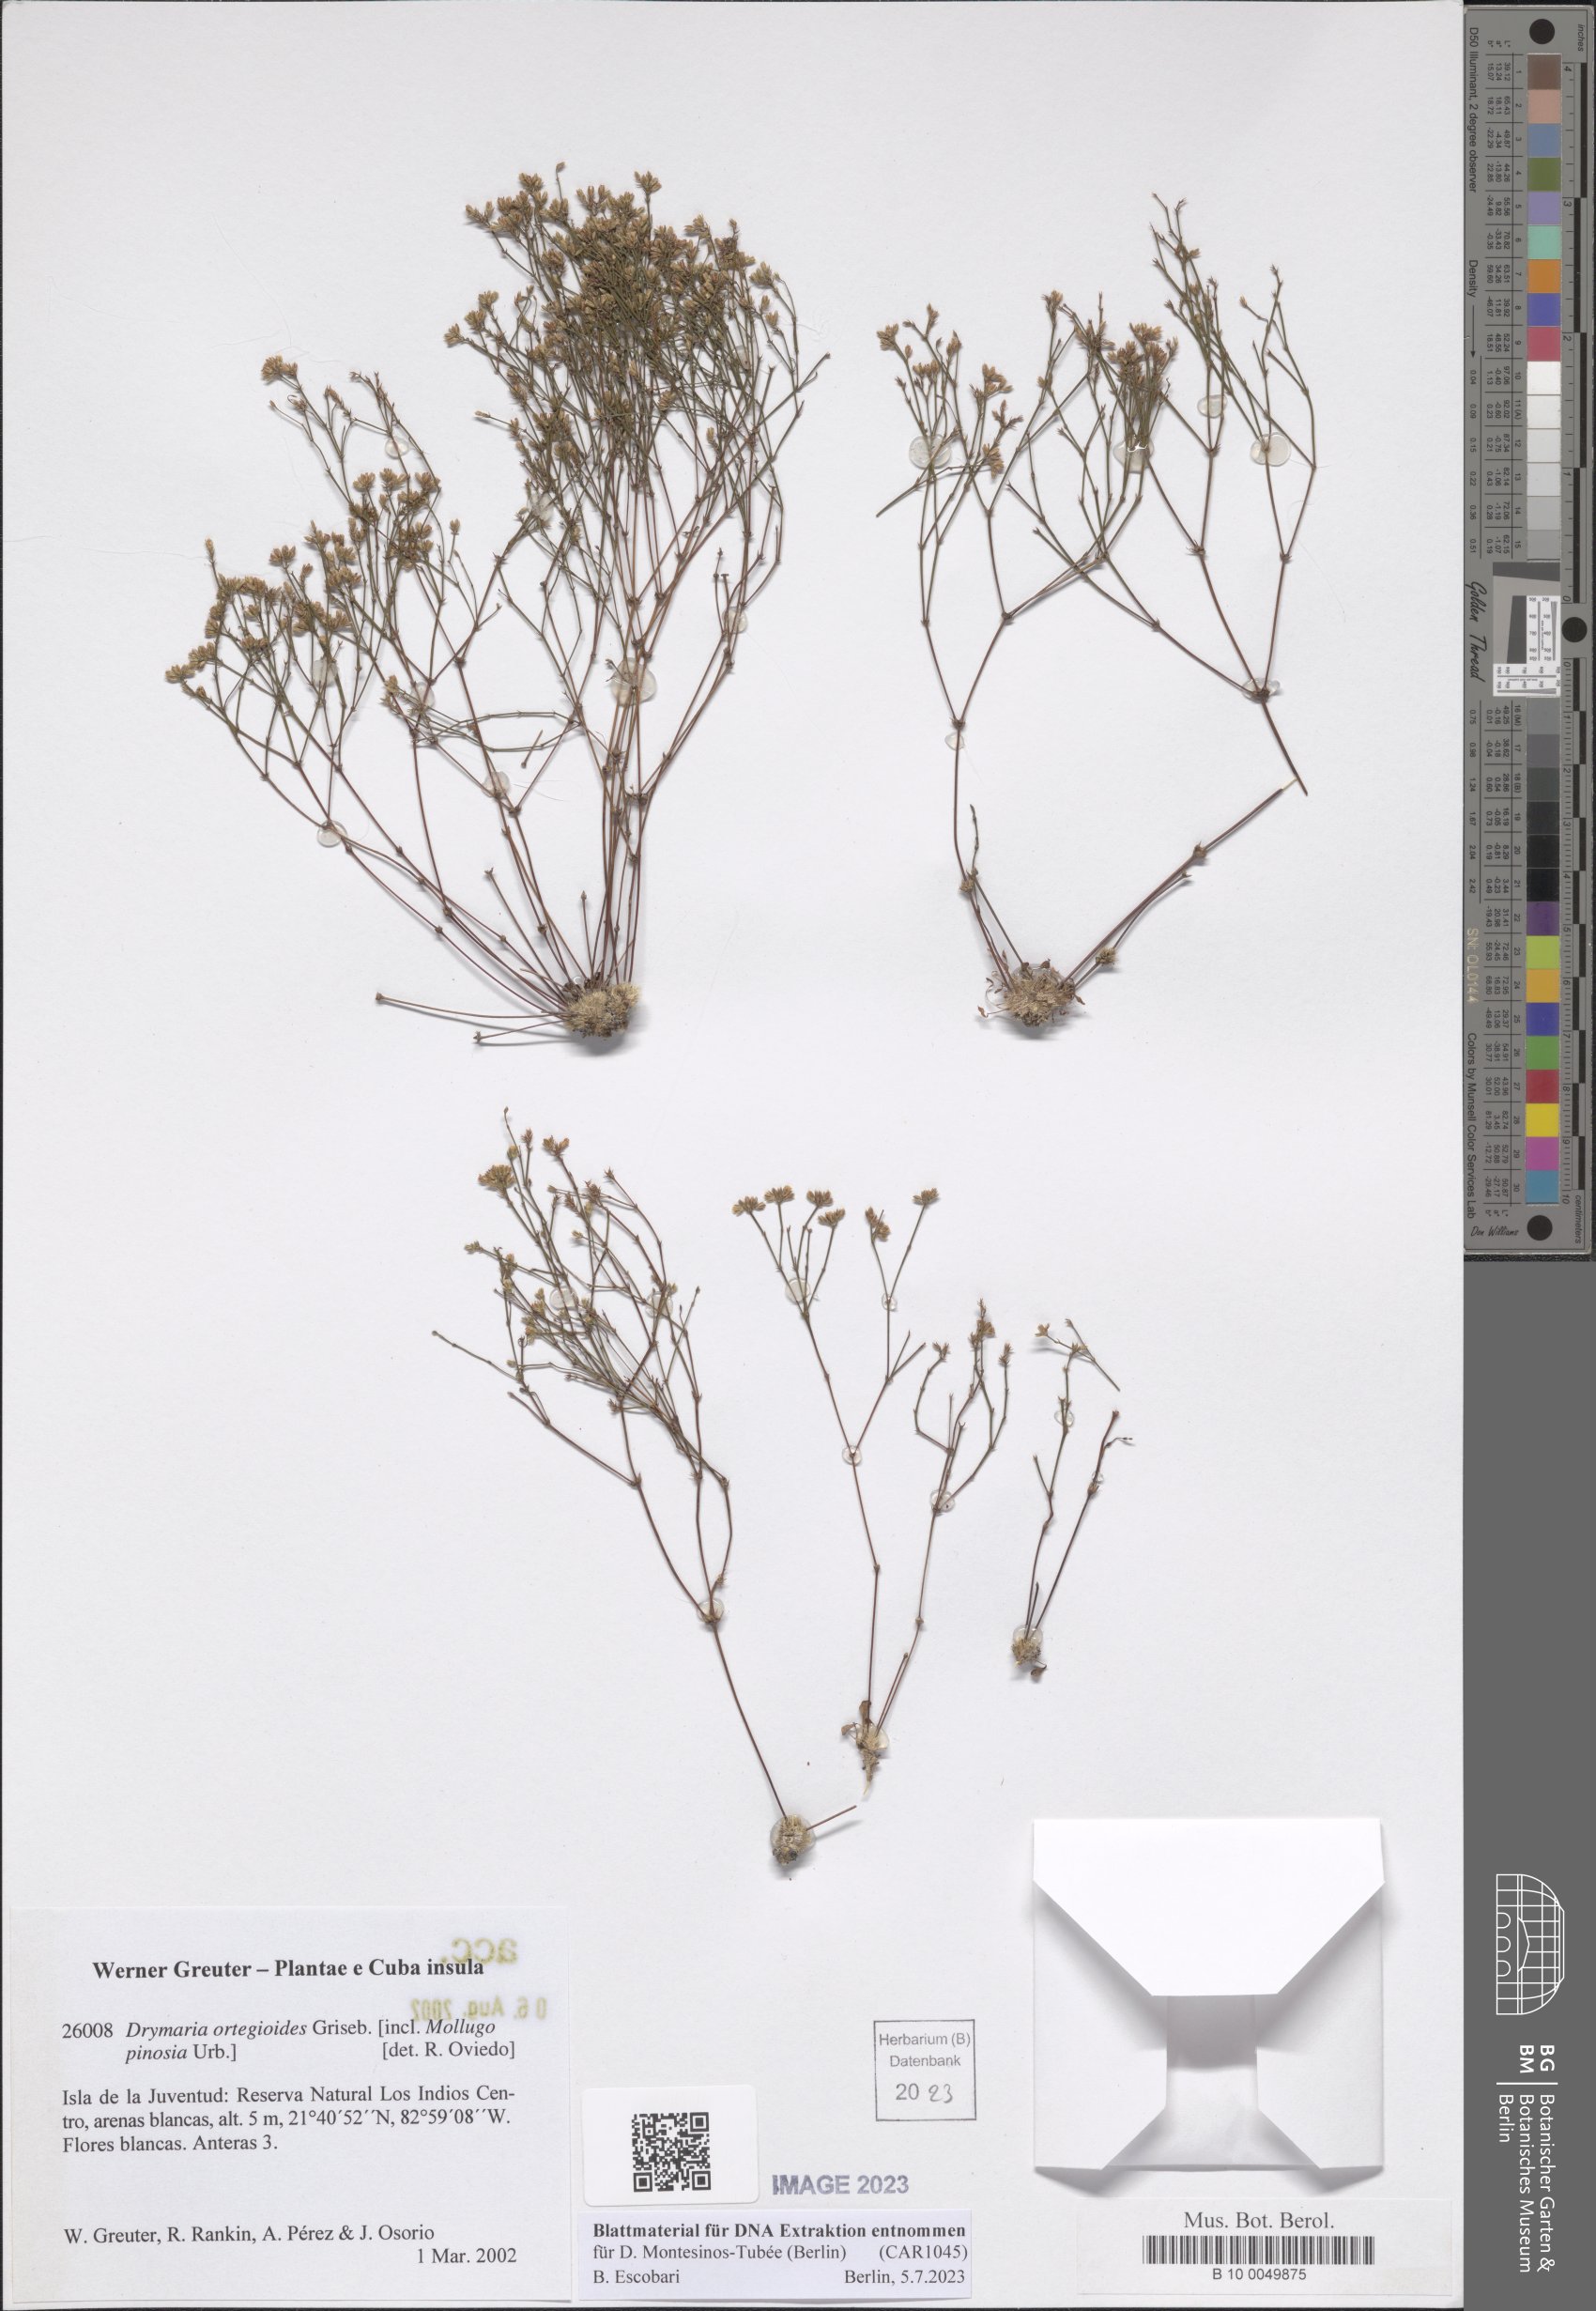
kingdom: Plantae
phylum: Tracheophyta
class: Magnoliopsida
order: Caryophyllales
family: Caryophyllaceae
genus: Drymaria
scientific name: Drymaria ortegioides
